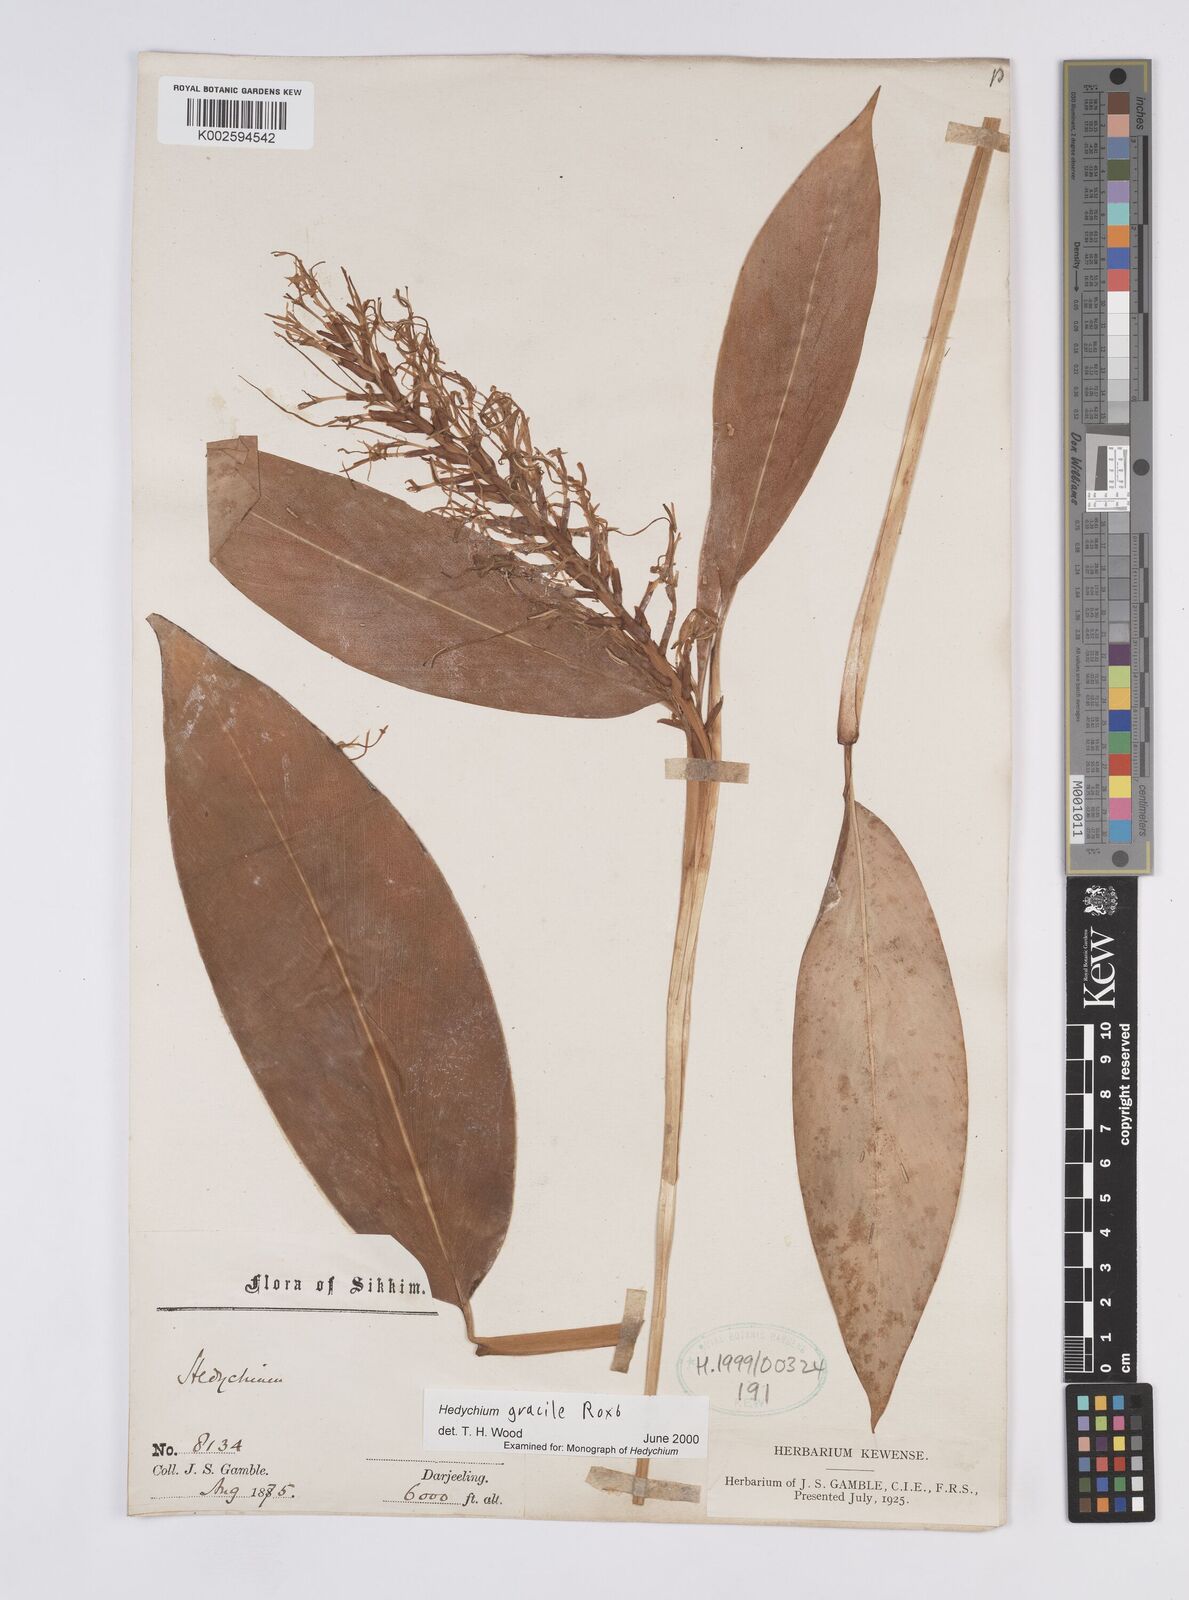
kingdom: Plantae
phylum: Tracheophyta
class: Liliopsida
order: Zingiberales
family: Zingiberaceae
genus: Hedychium
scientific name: Hedychium glaucum
